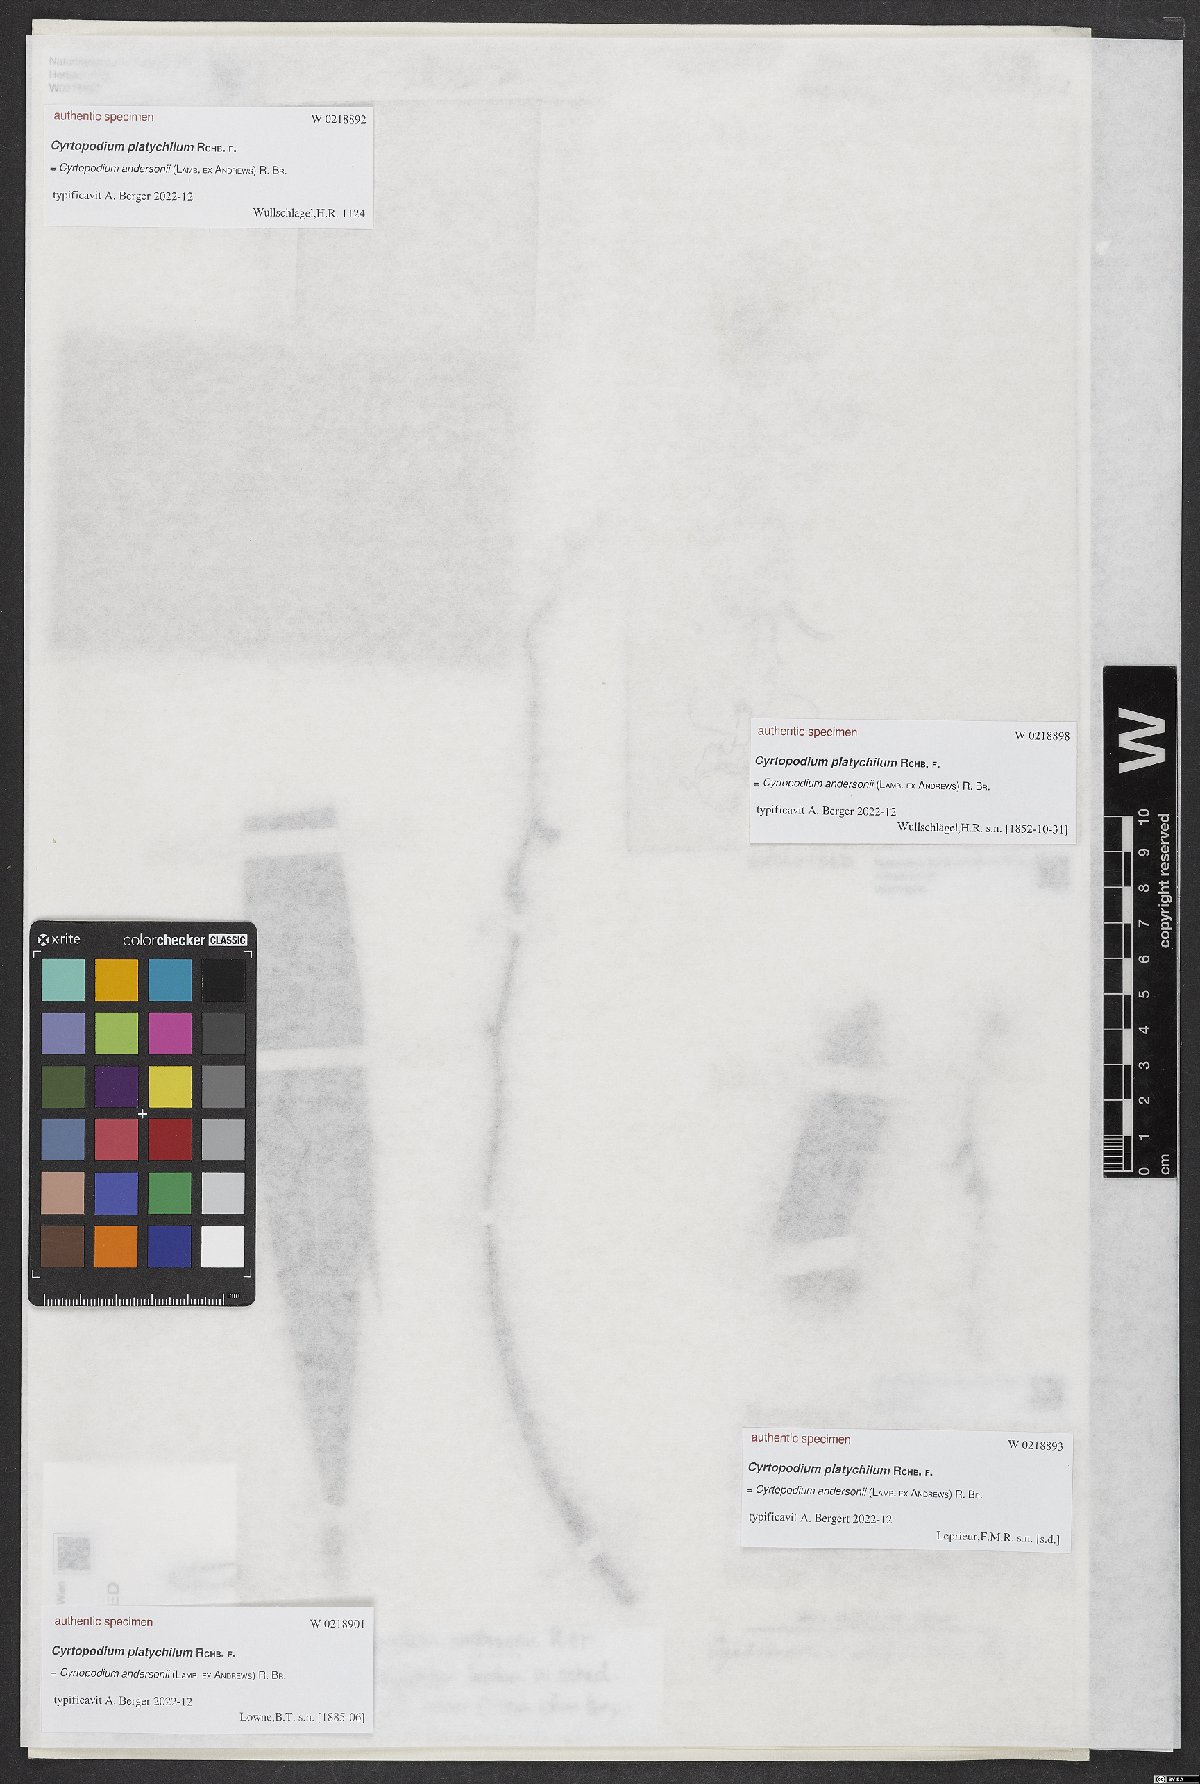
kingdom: Plantae
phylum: Tracheophyta
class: Liliopsida
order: Asparagales
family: Orchidaceae
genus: Cyrtopodium
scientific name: Cyrtopodium
